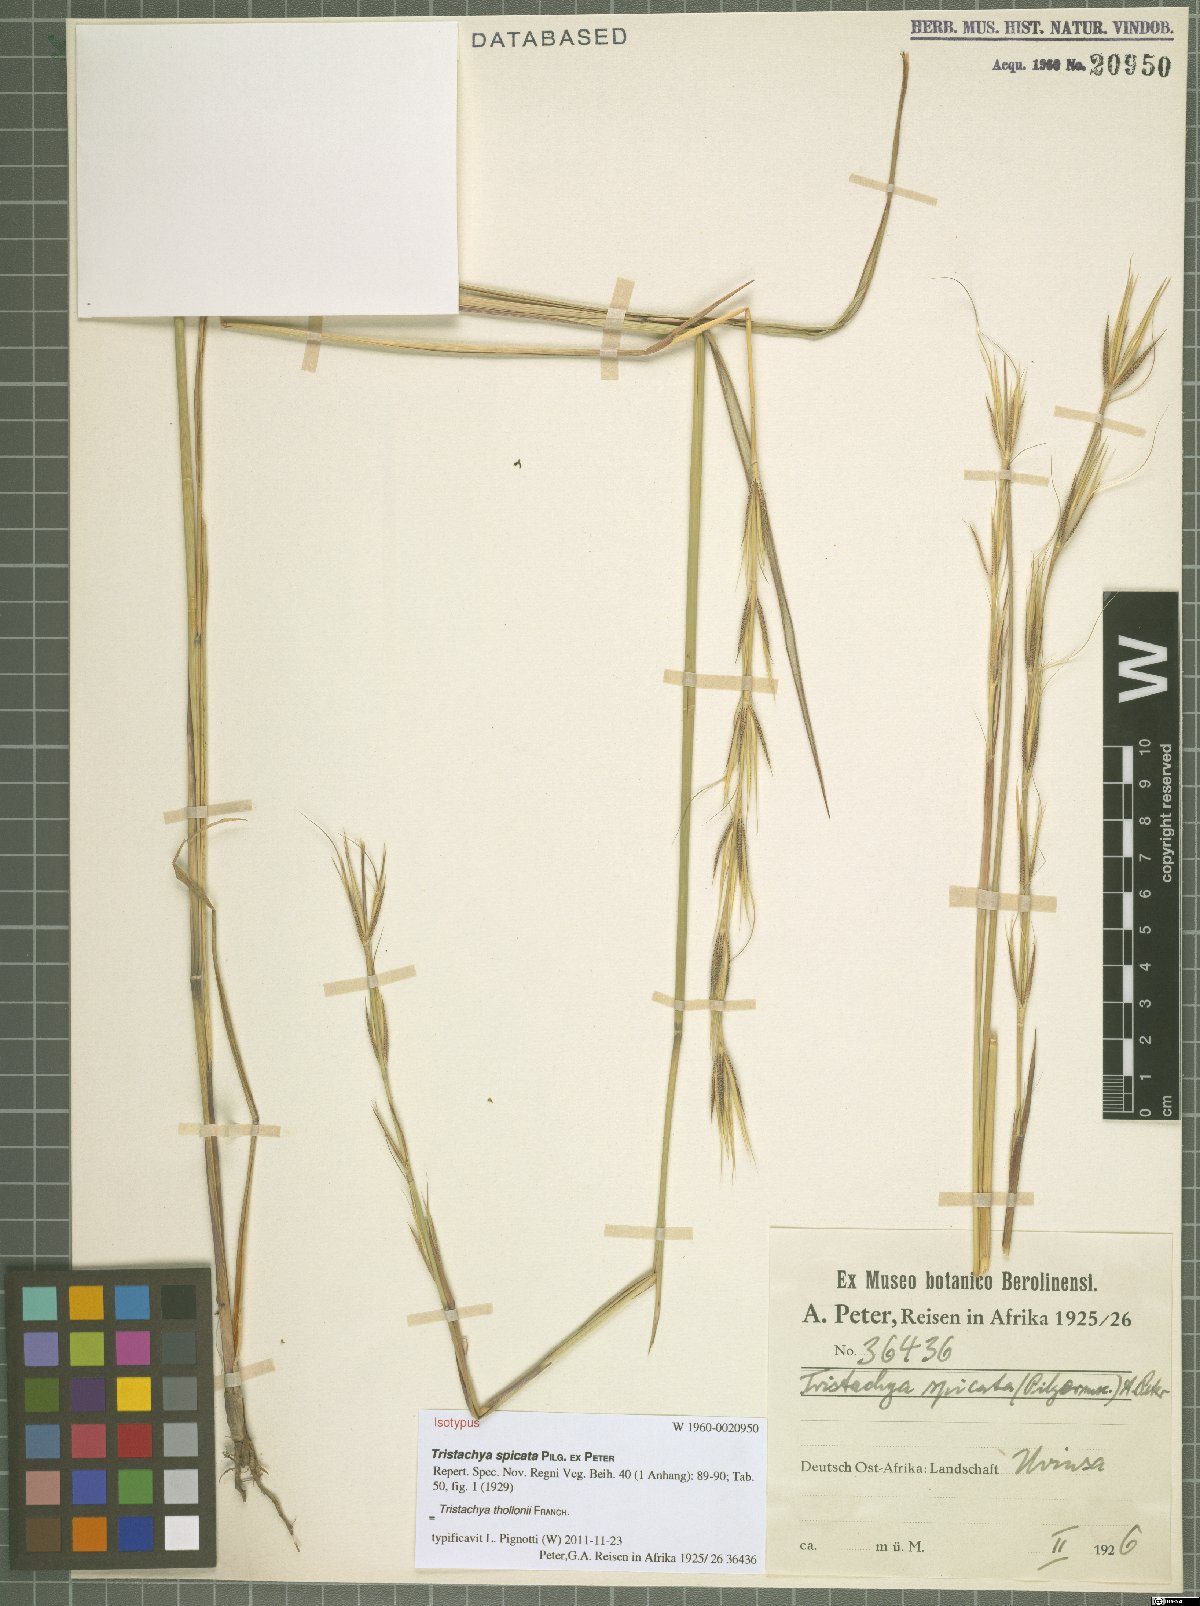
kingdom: Plantae
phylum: Tracheophyta
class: Liliopsida
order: Poales
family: Poaceae
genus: Tristachya
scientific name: Tristachya thollonii
